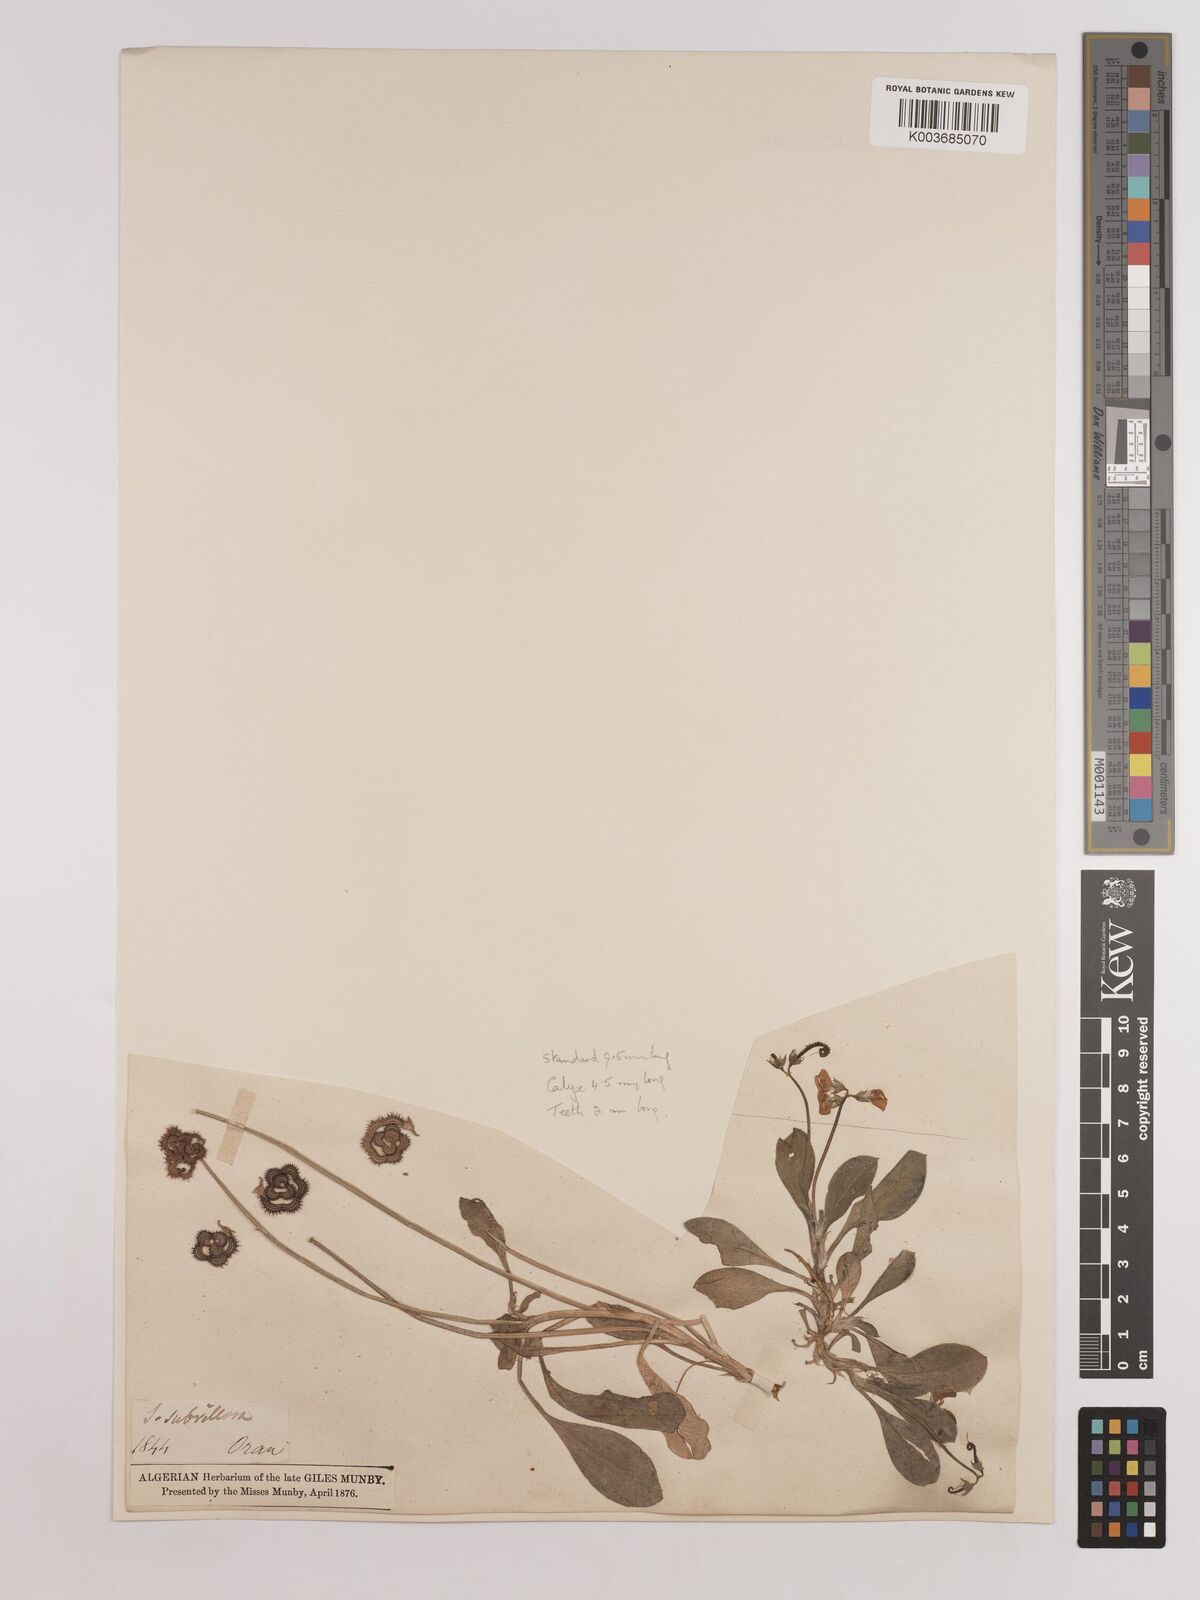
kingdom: Plantae
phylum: Tracheophyta
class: Magnoliopsida
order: Fabales
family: Fabaceae
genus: Scorpiurus
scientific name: Scorpiurus muricatus
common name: Caterpillar-plant
